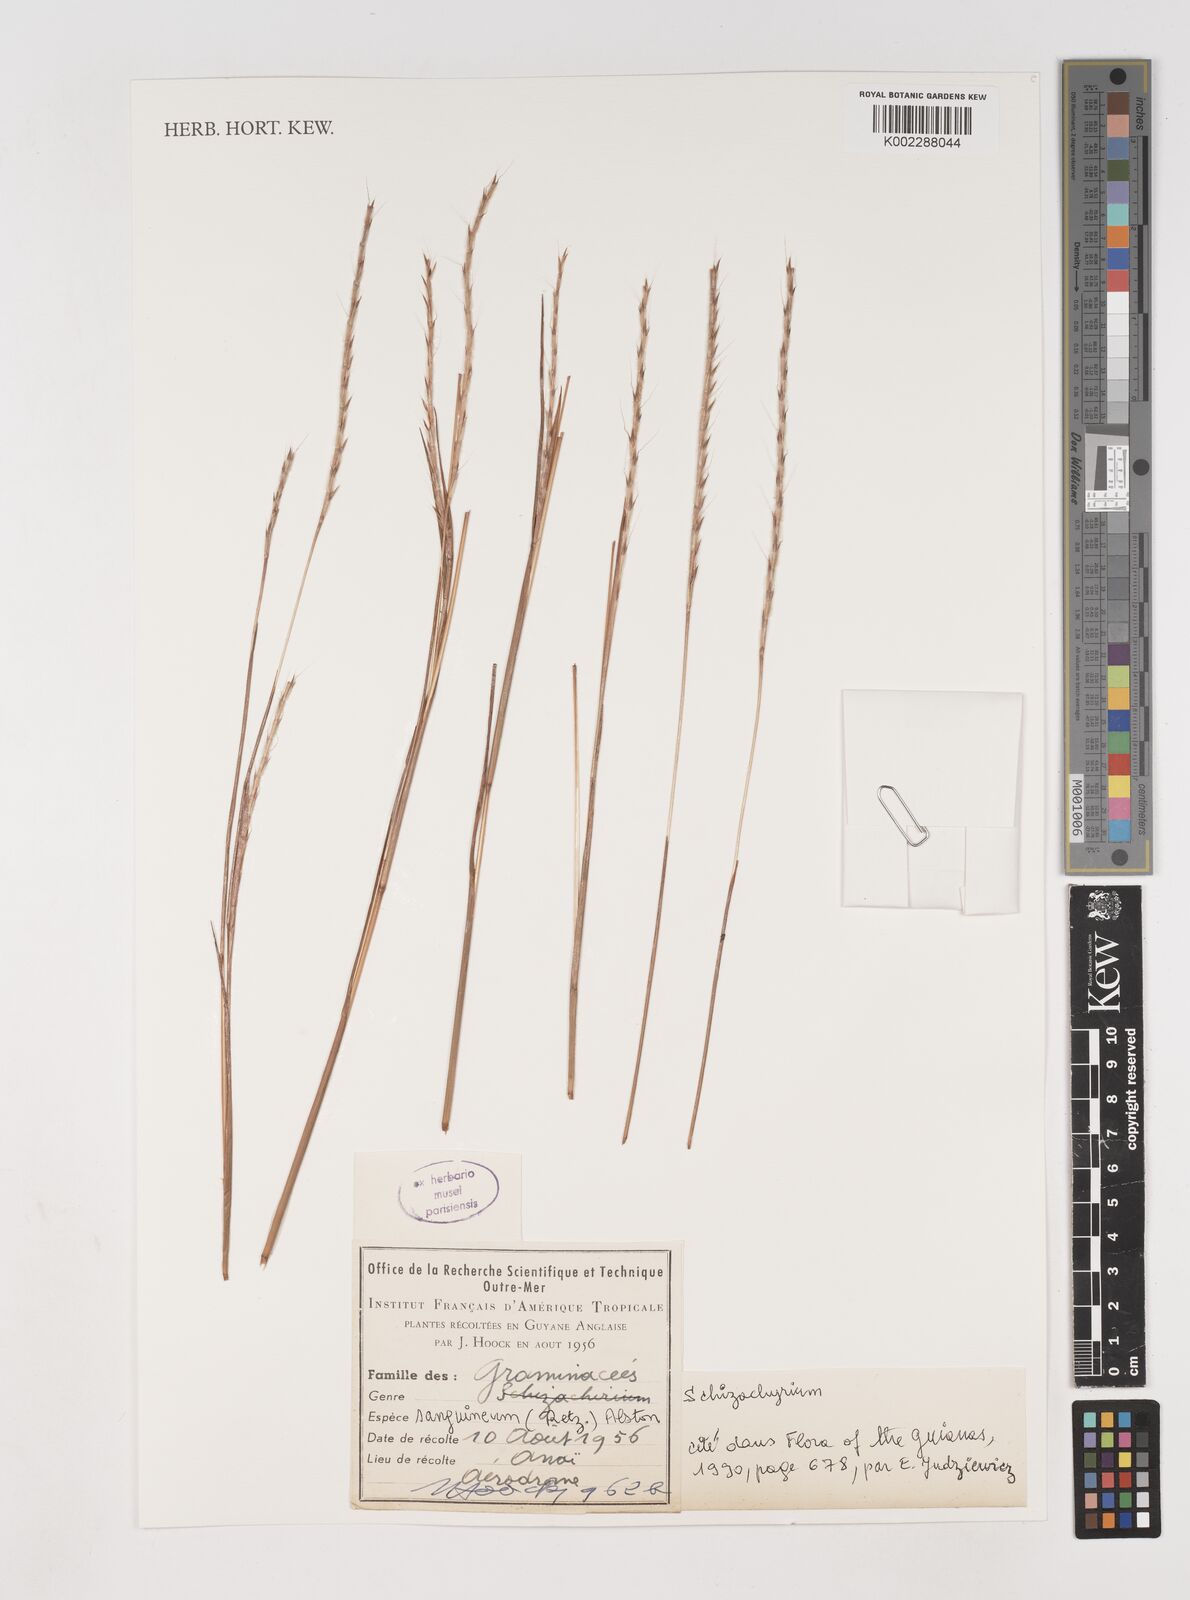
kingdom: Plantae
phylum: Tracheophyta
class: Liliopsida
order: Poales
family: Poaceae
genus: Schizachyrium
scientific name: Schizachyrium sanguineum
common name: Crimson bluestem
